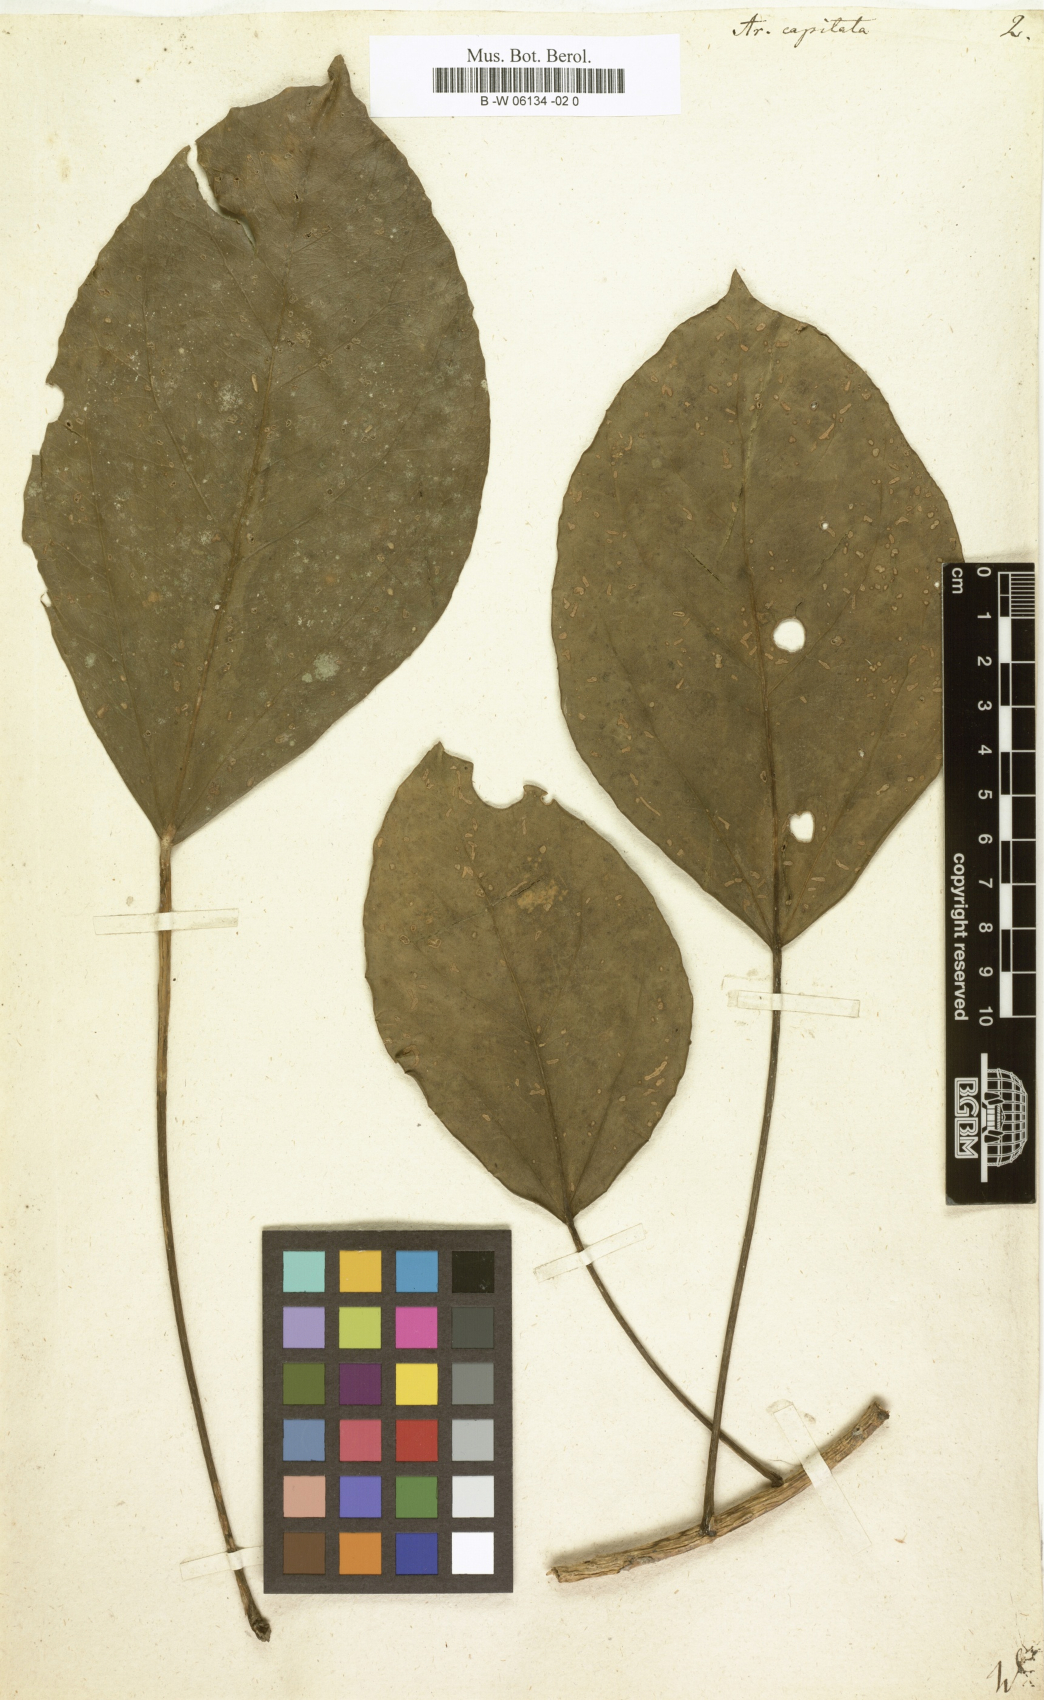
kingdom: Plantae
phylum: Tracheophyta
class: Magnoliopsida
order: Apiales
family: Araliaceae
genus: Oreopanax
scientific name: Oreopanax capitatus
